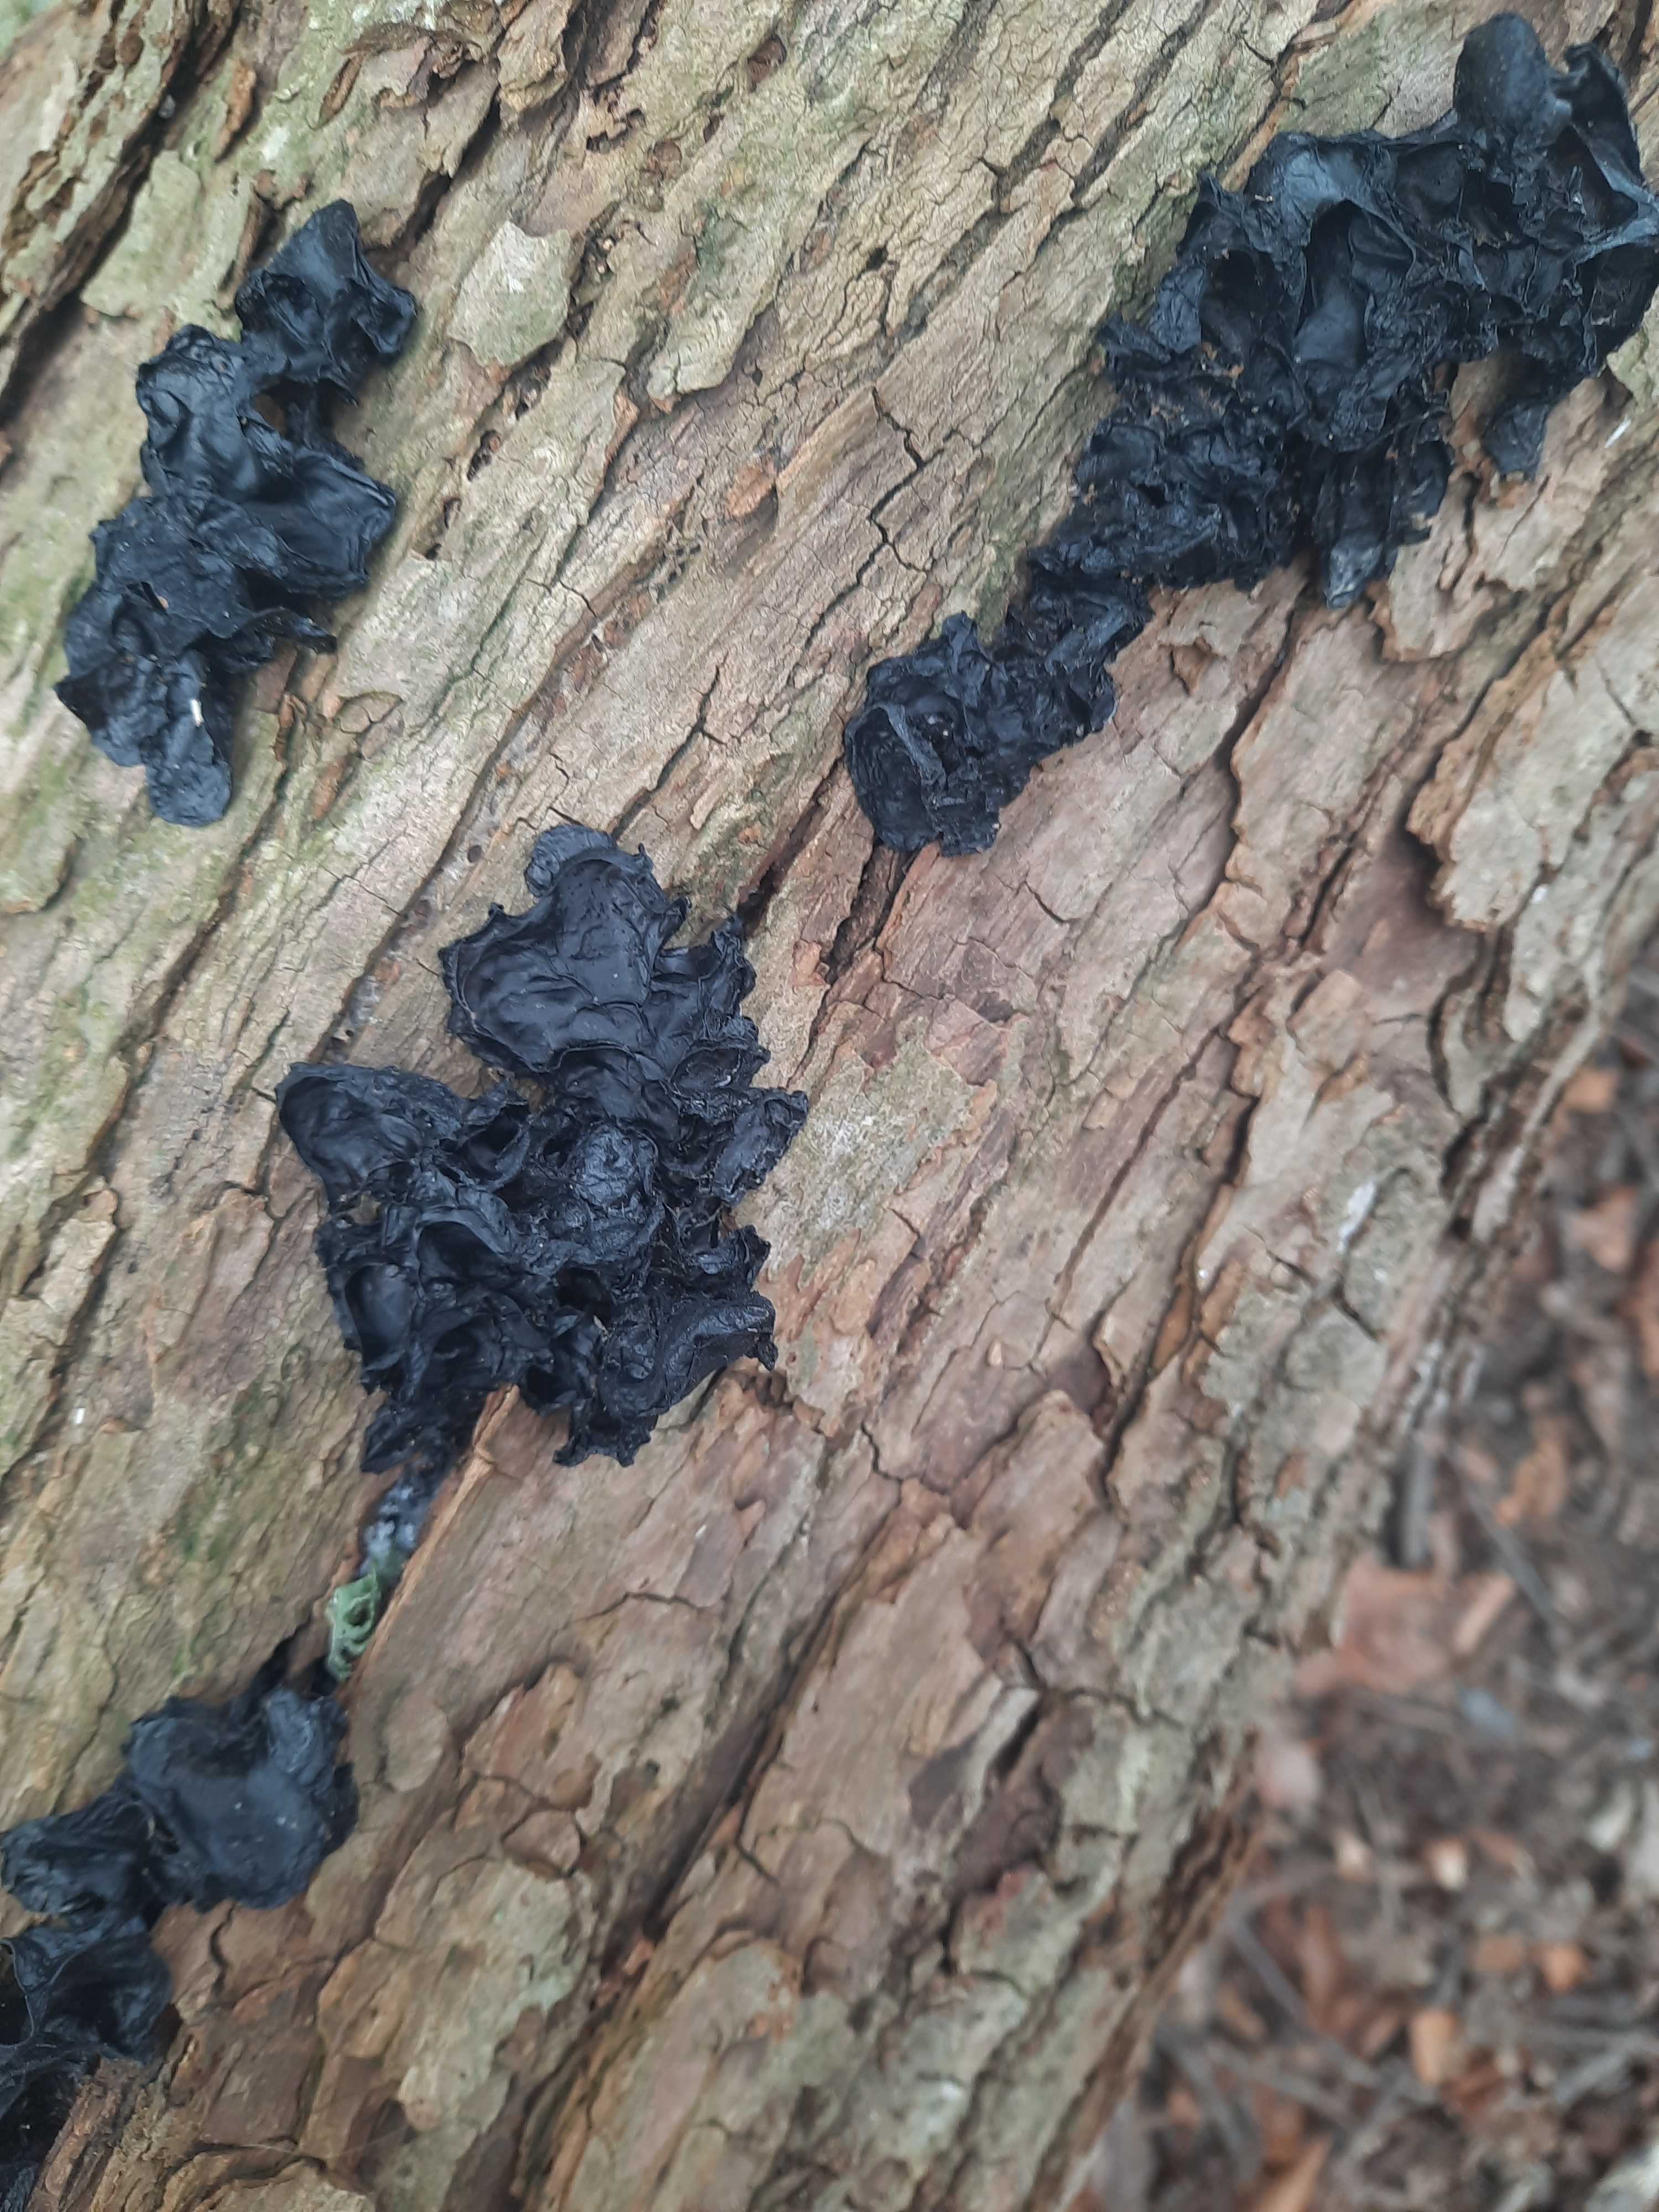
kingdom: Fungi
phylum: Basidiomycota
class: Tremellomycetes
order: Tremellales
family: Exidiaceae
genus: Exidia
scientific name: Exidia
